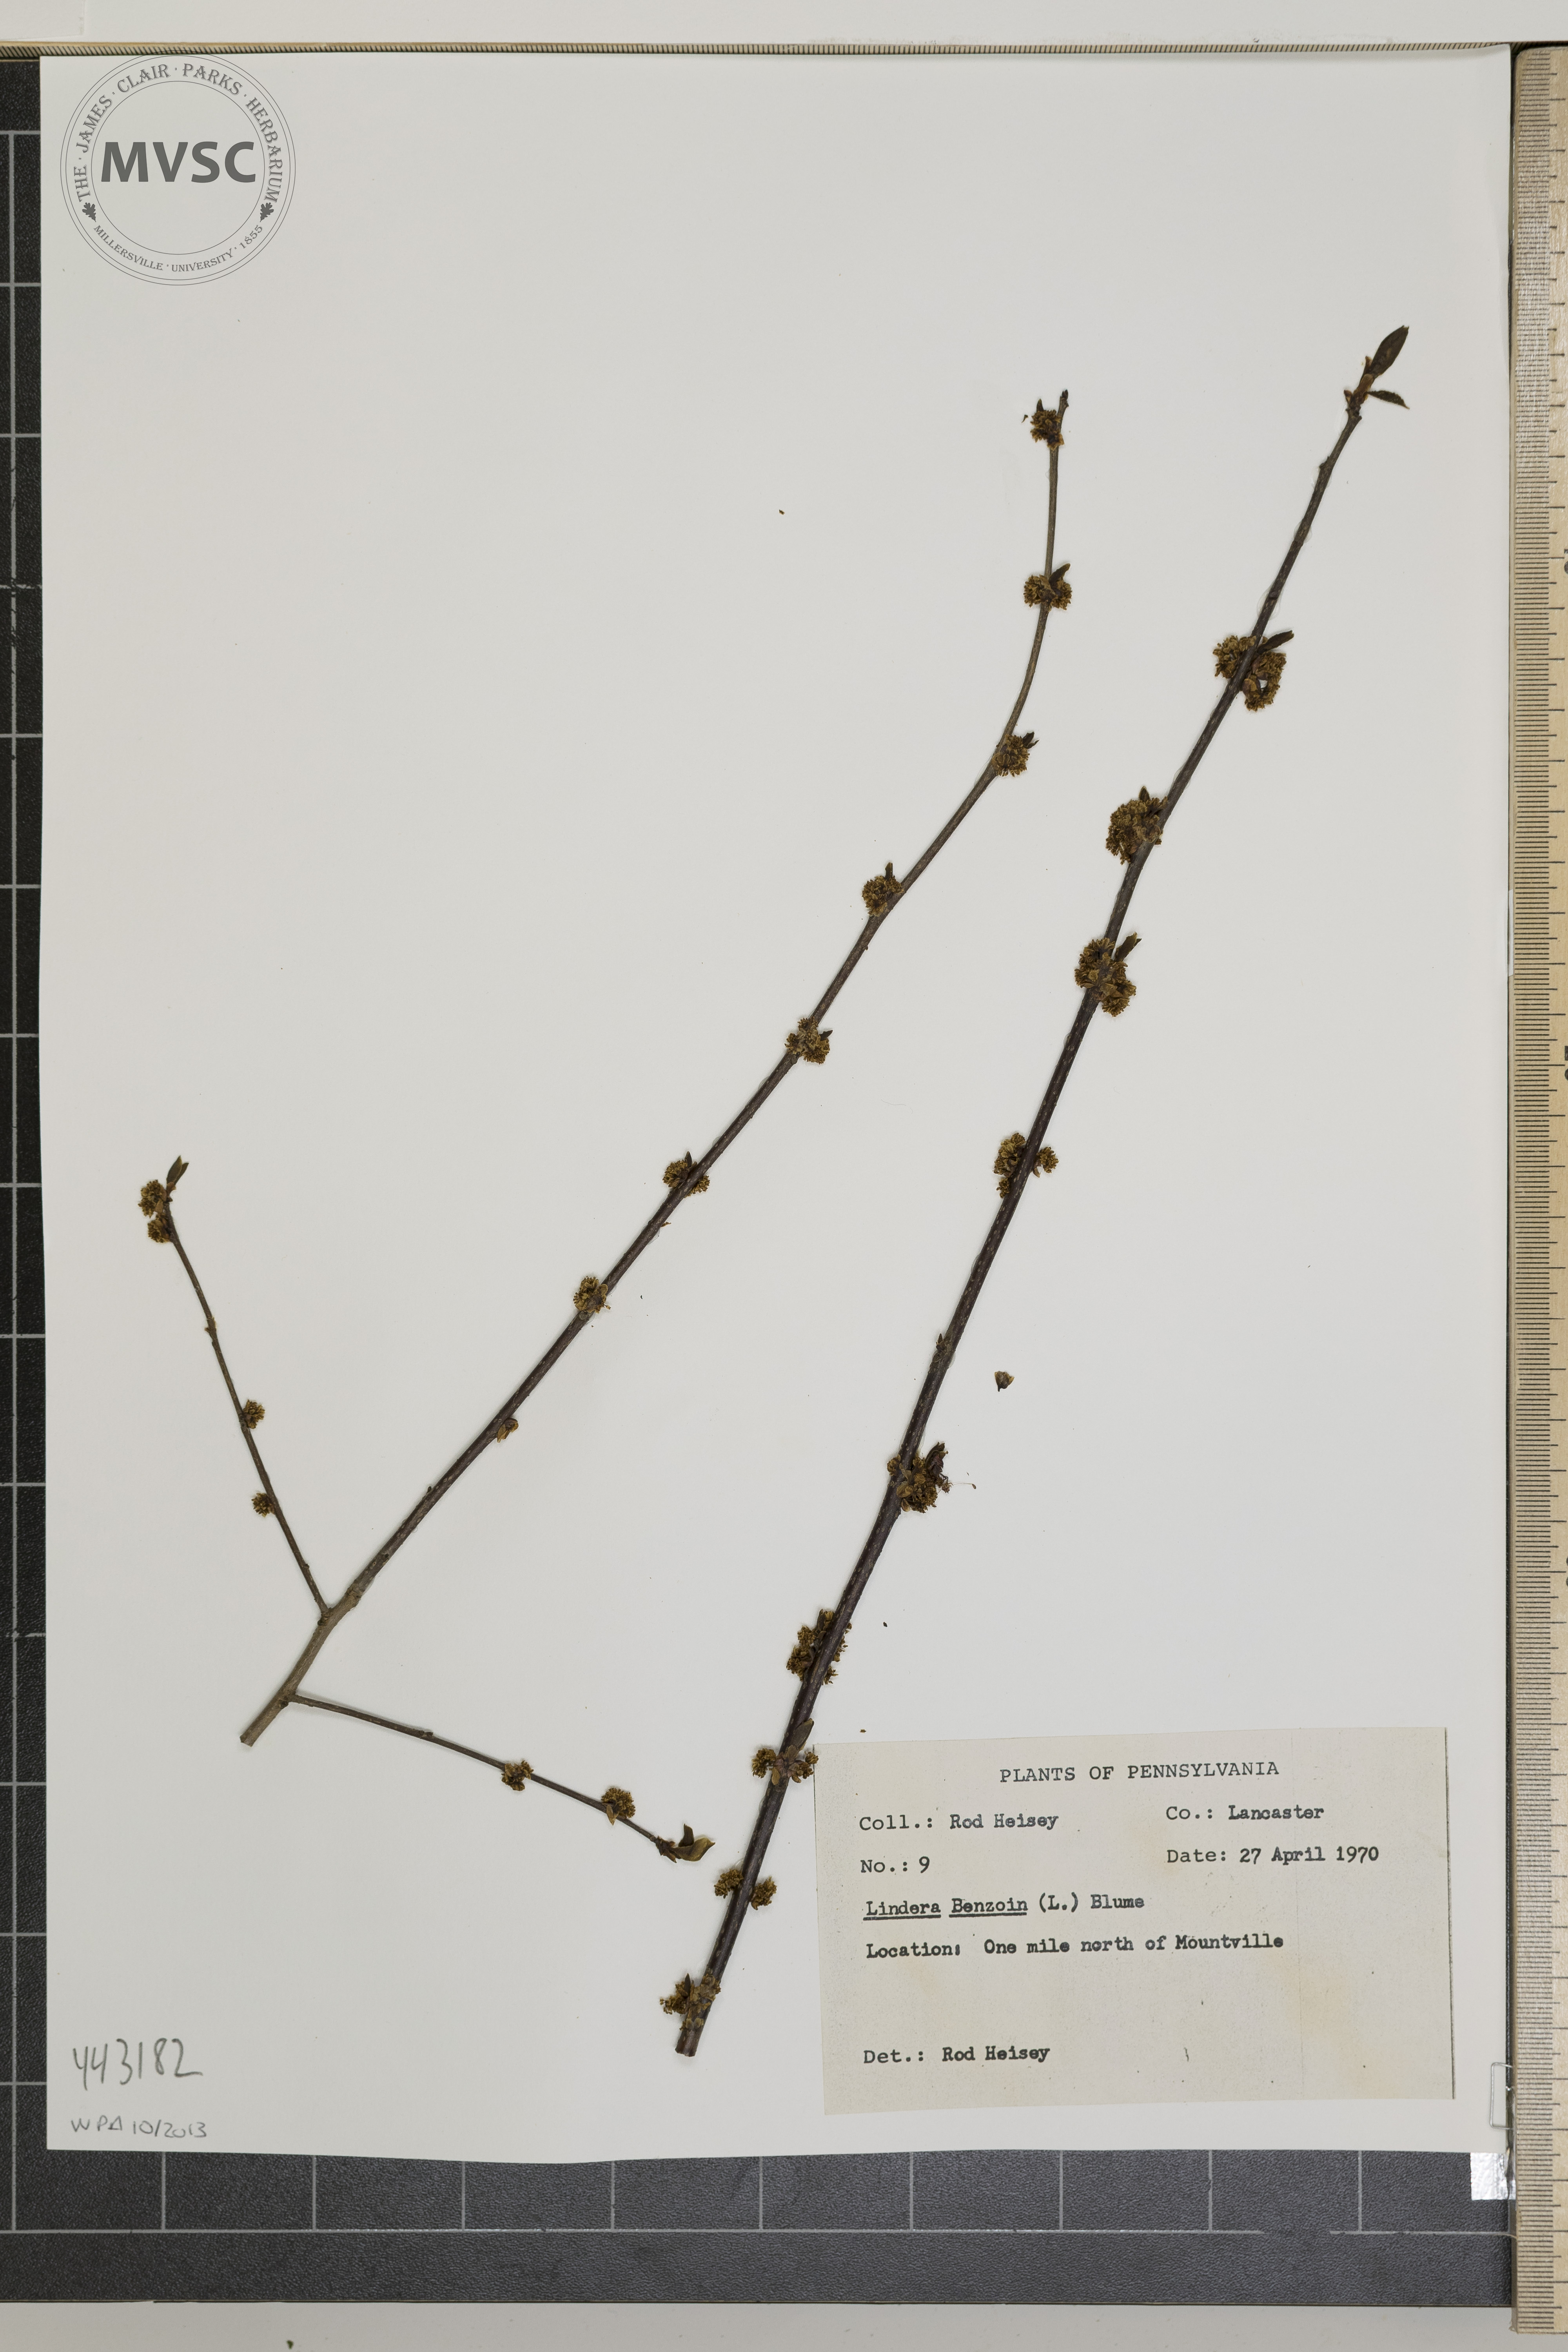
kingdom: Plantae
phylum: Tracheophyta
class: Magnoliopsida
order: Laurales
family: Lauraceae
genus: Lindera
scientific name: Lindera benzoin
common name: Spicebush
